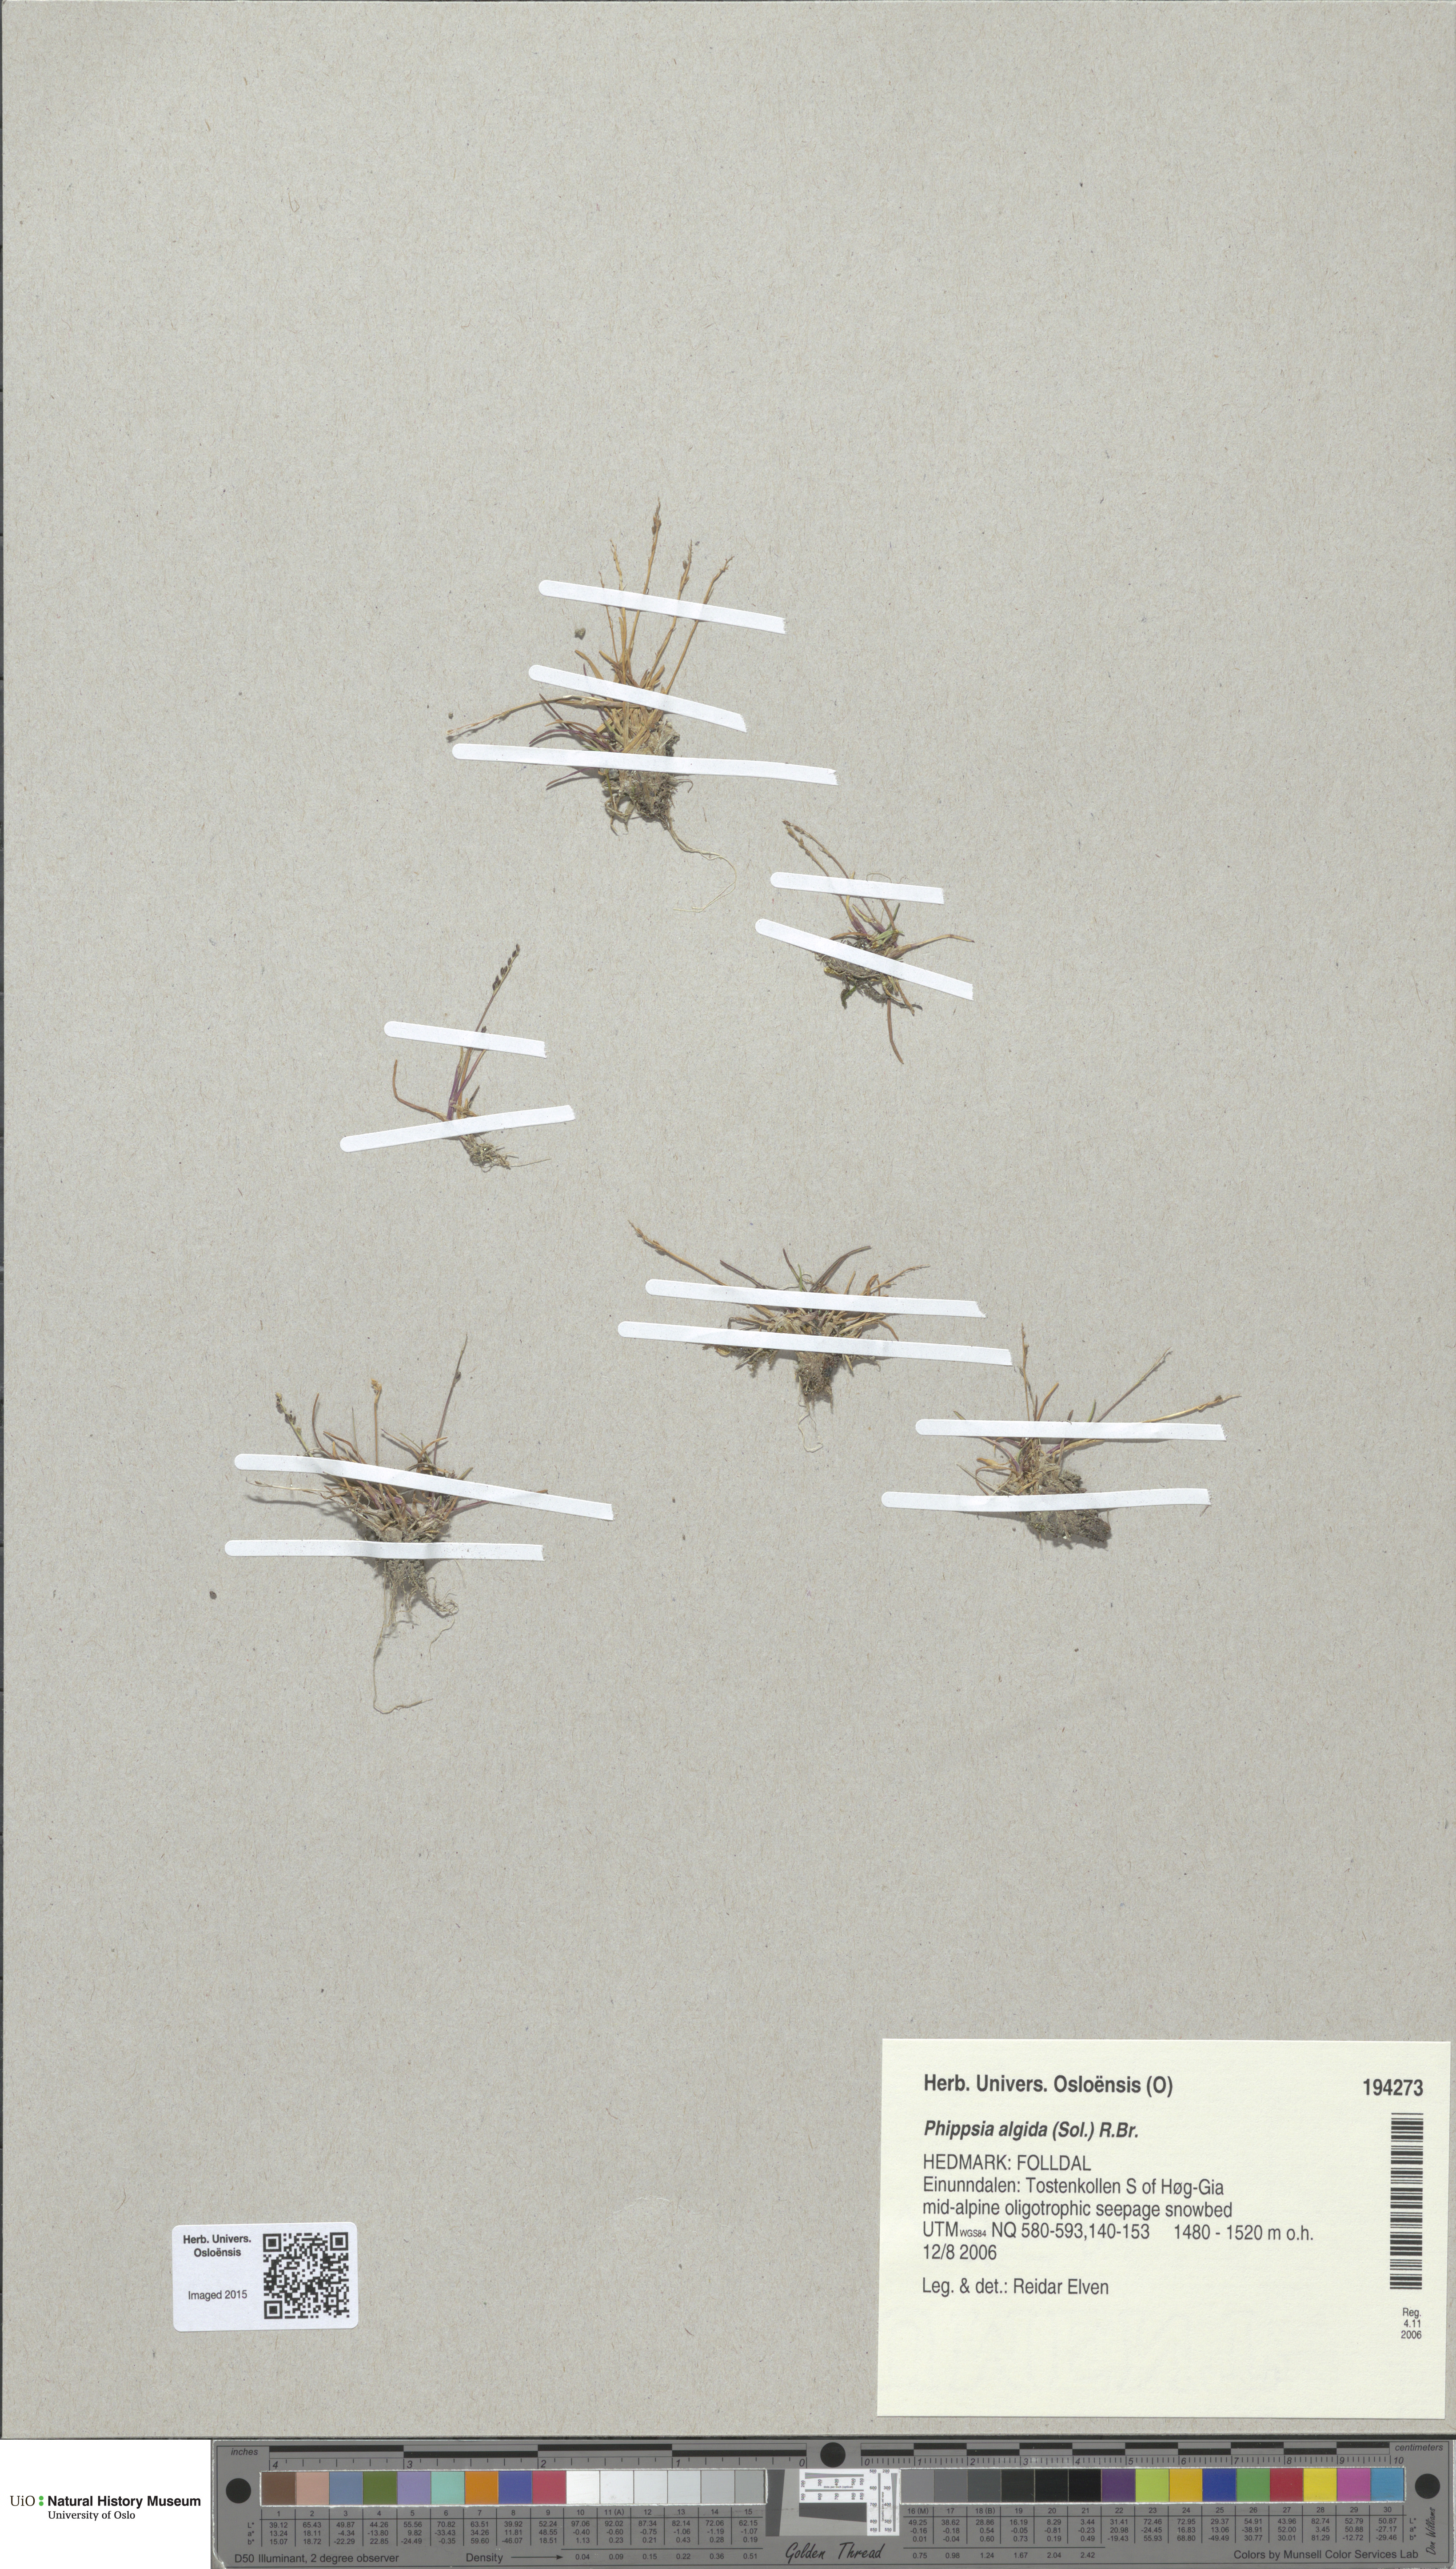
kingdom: Plantae
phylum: Tracheophyta
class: Liliopsida
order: Poales
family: Poaceae
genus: Phippsia
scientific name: Phippsia algida
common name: Ice grass
